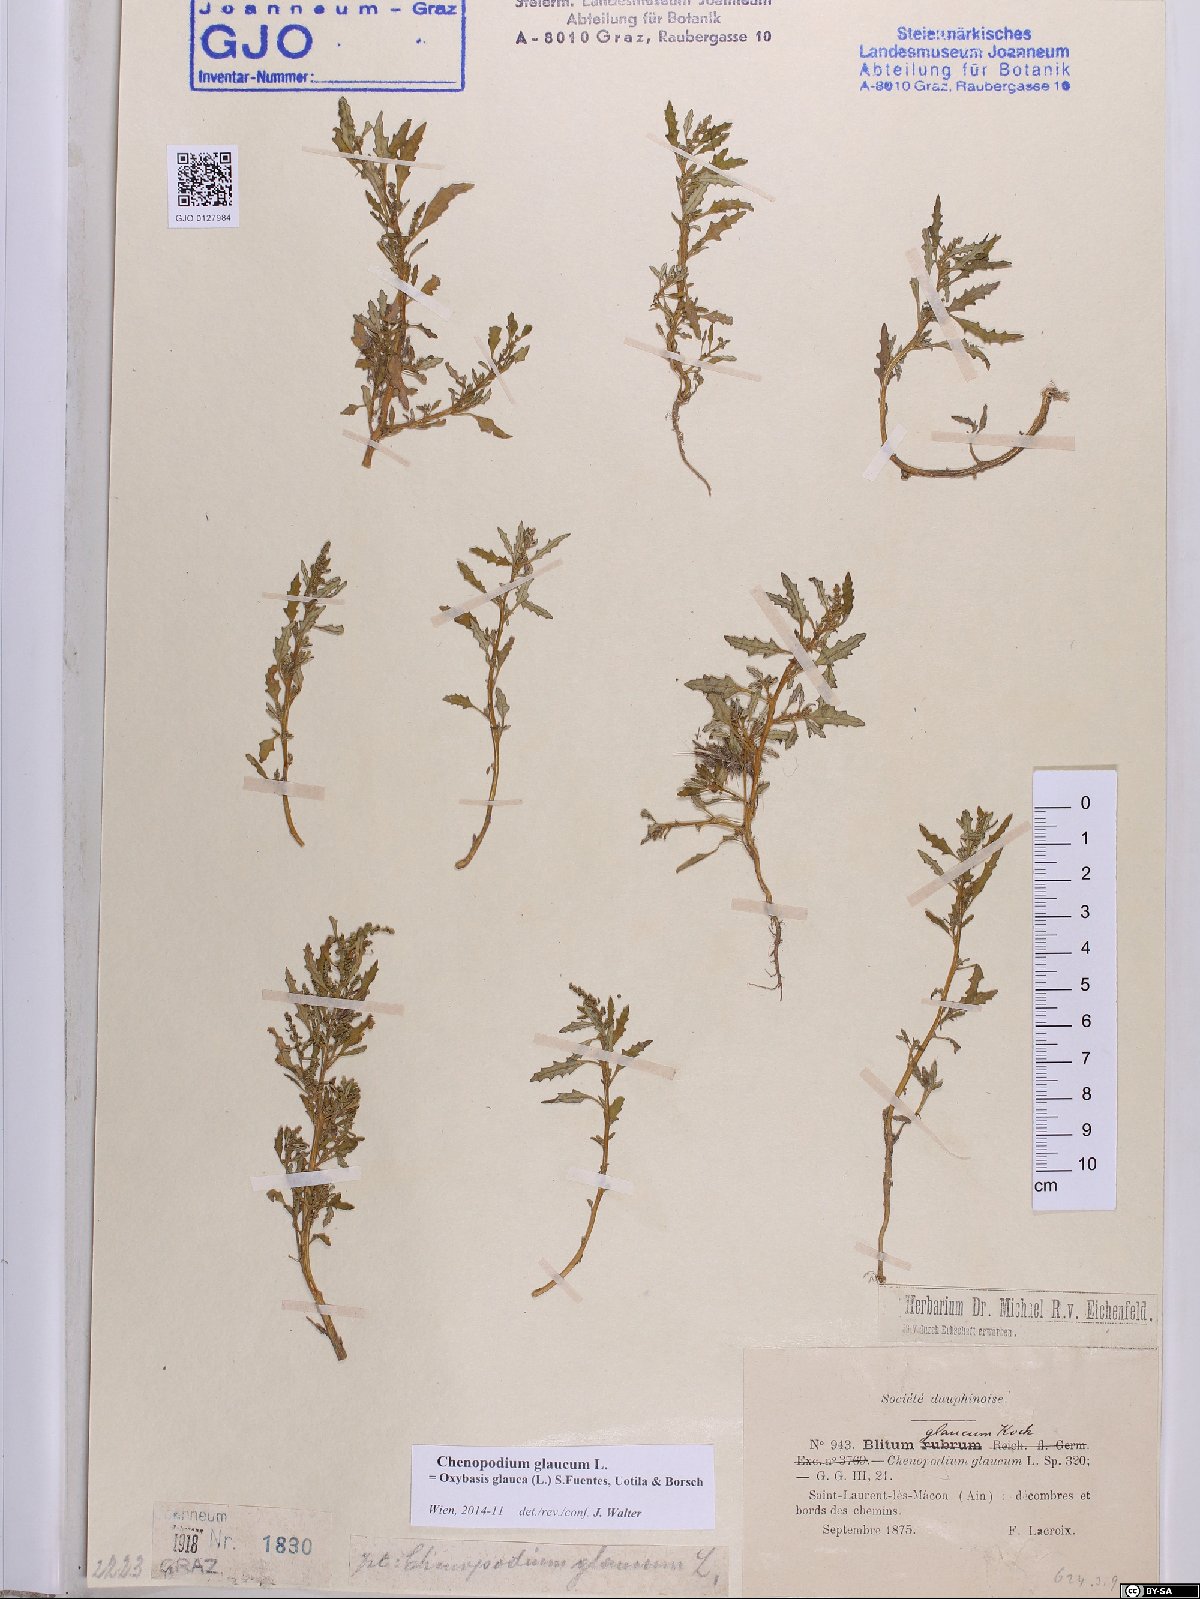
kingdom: Plantae
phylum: Tracheophyta
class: Magnoliopsida
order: Caryophyllales
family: Amaranthaceae
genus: Oxybasis
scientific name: Oxybasis glauca
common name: Glaucous goosefoot
